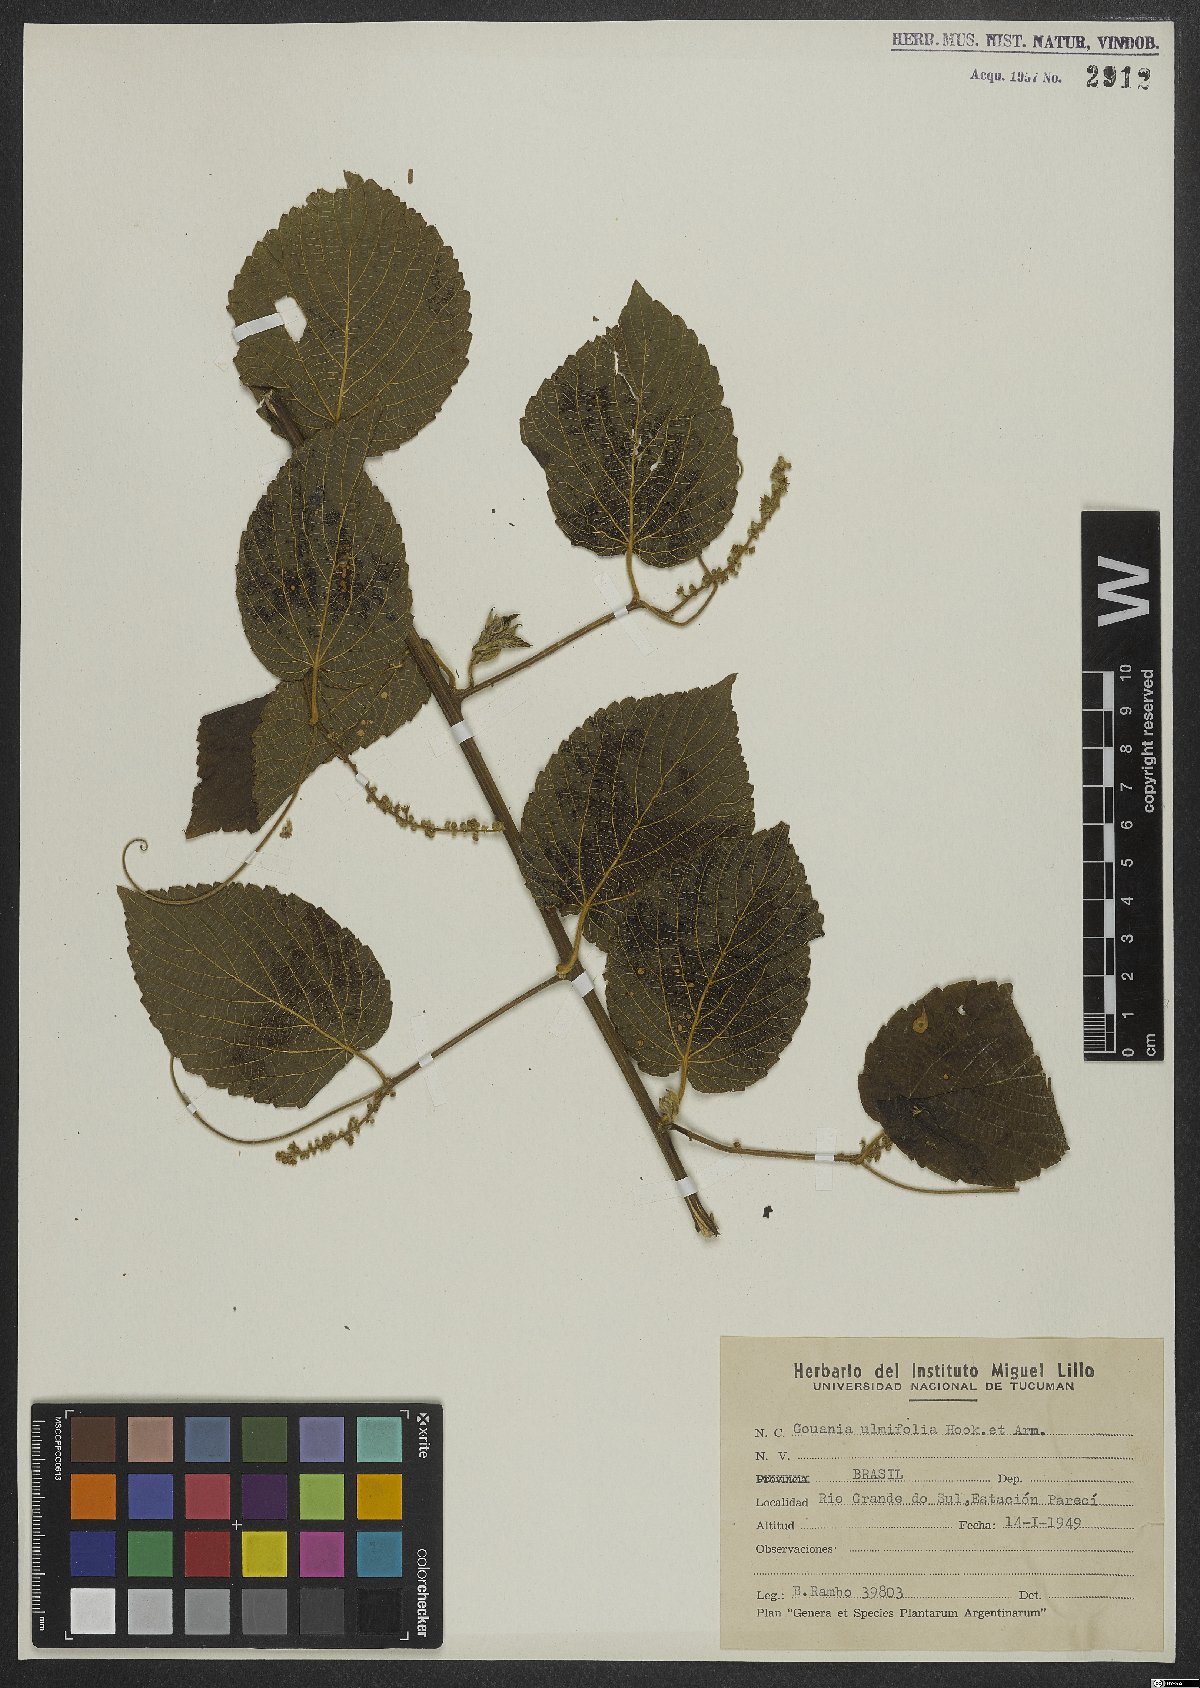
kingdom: Plantae
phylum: Tracheophyta
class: Magnoliopsida
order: Rosales
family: Rhamnaceae
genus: Gouania
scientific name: Gouania ulmifolia
